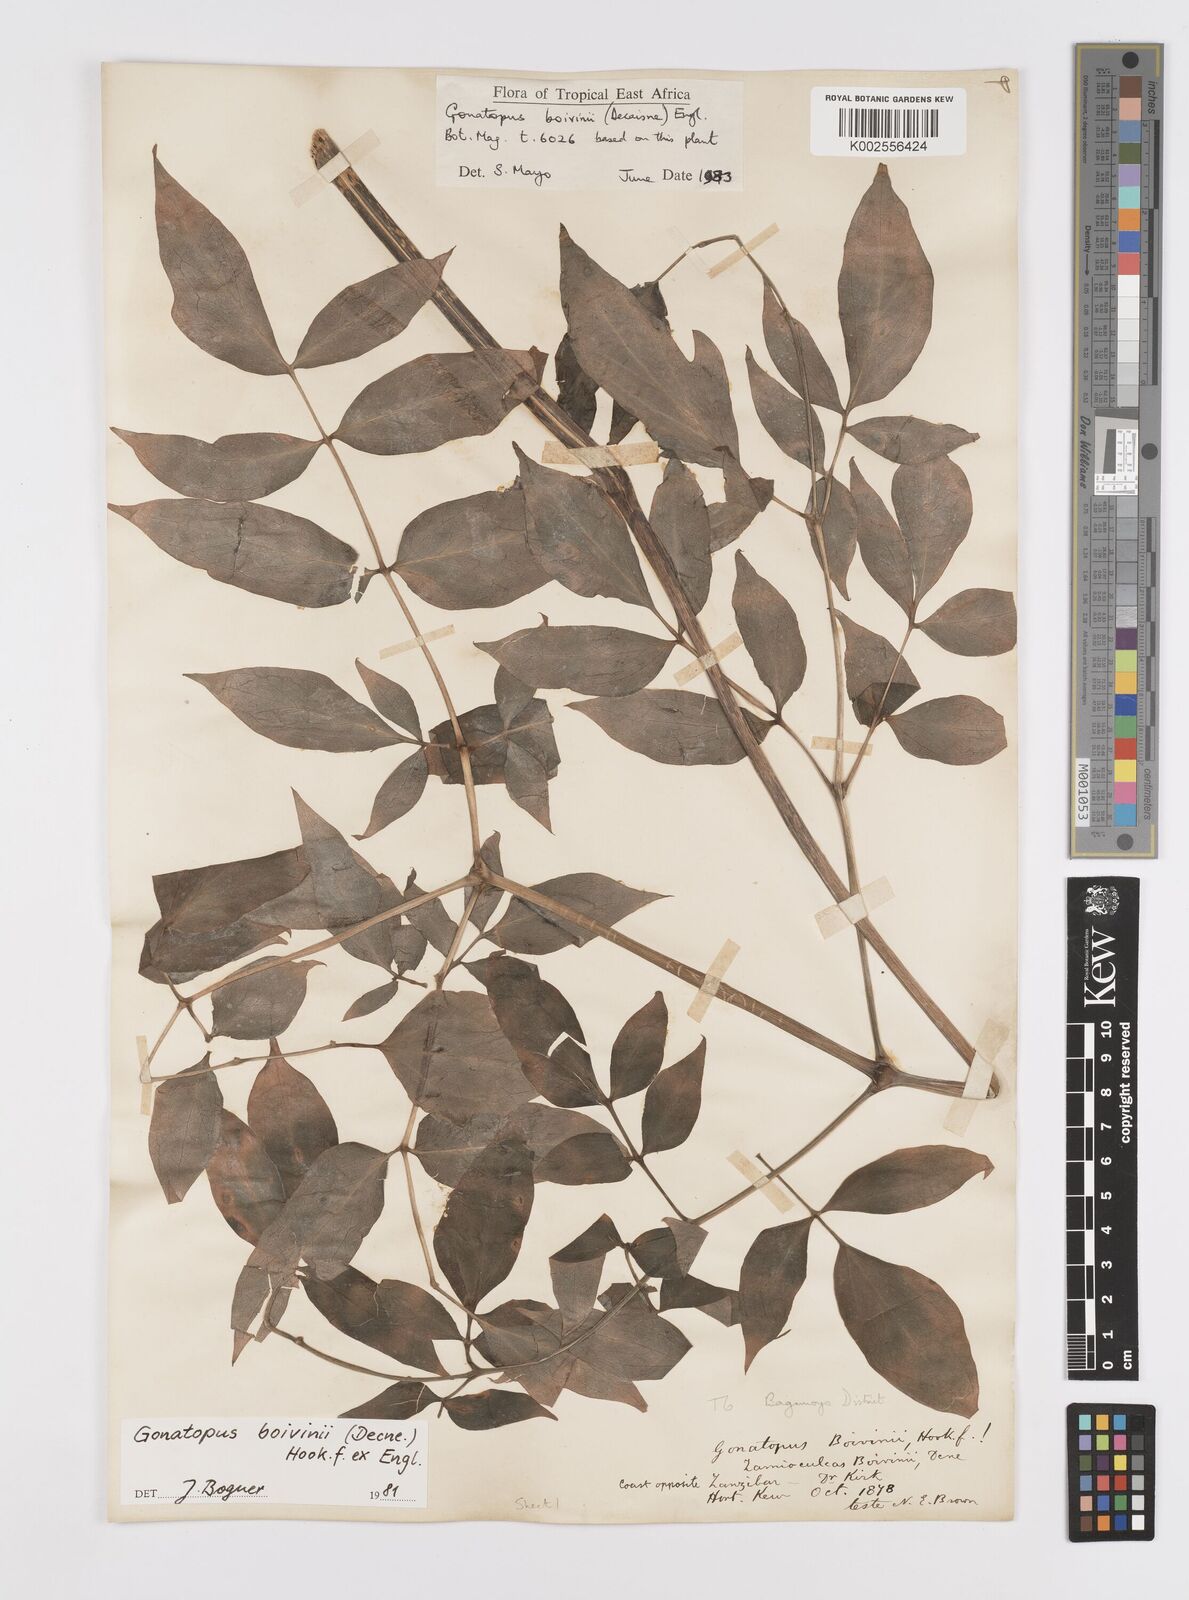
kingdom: Plantae
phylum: Tracheophyta
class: Liliopsida
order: Alismatales
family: Araceae
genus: Gonatopus
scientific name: Gonatopus boivinii
